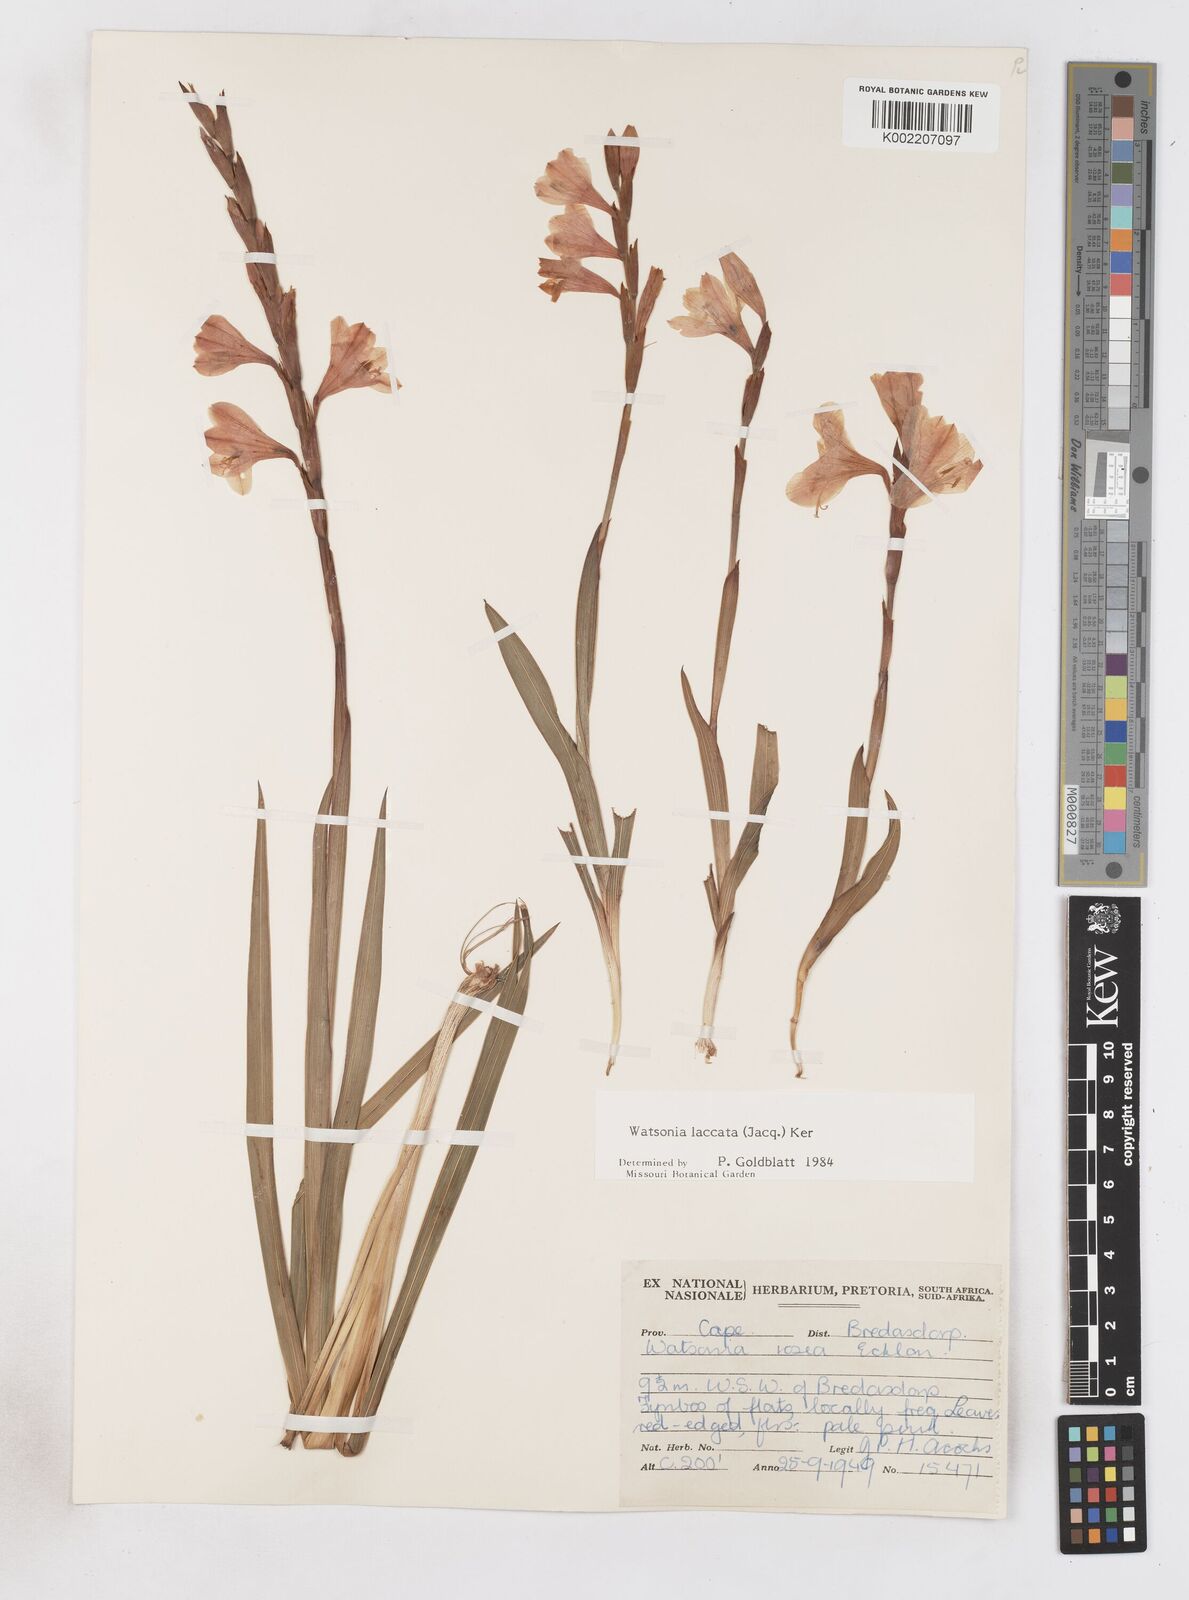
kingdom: Plantae
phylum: Tracheophyta
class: Liliopsida
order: Asparagales
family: Iridaceae
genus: Watsonia
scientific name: Watsonia laccata
